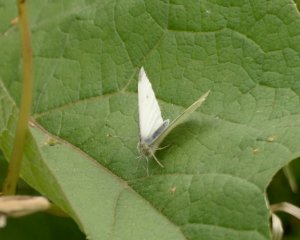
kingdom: Animalia
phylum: Arthropoda
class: Insecta
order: Lepidoptera
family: Pieridae
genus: Pieris
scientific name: Pieris rapae
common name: Cabbage White
